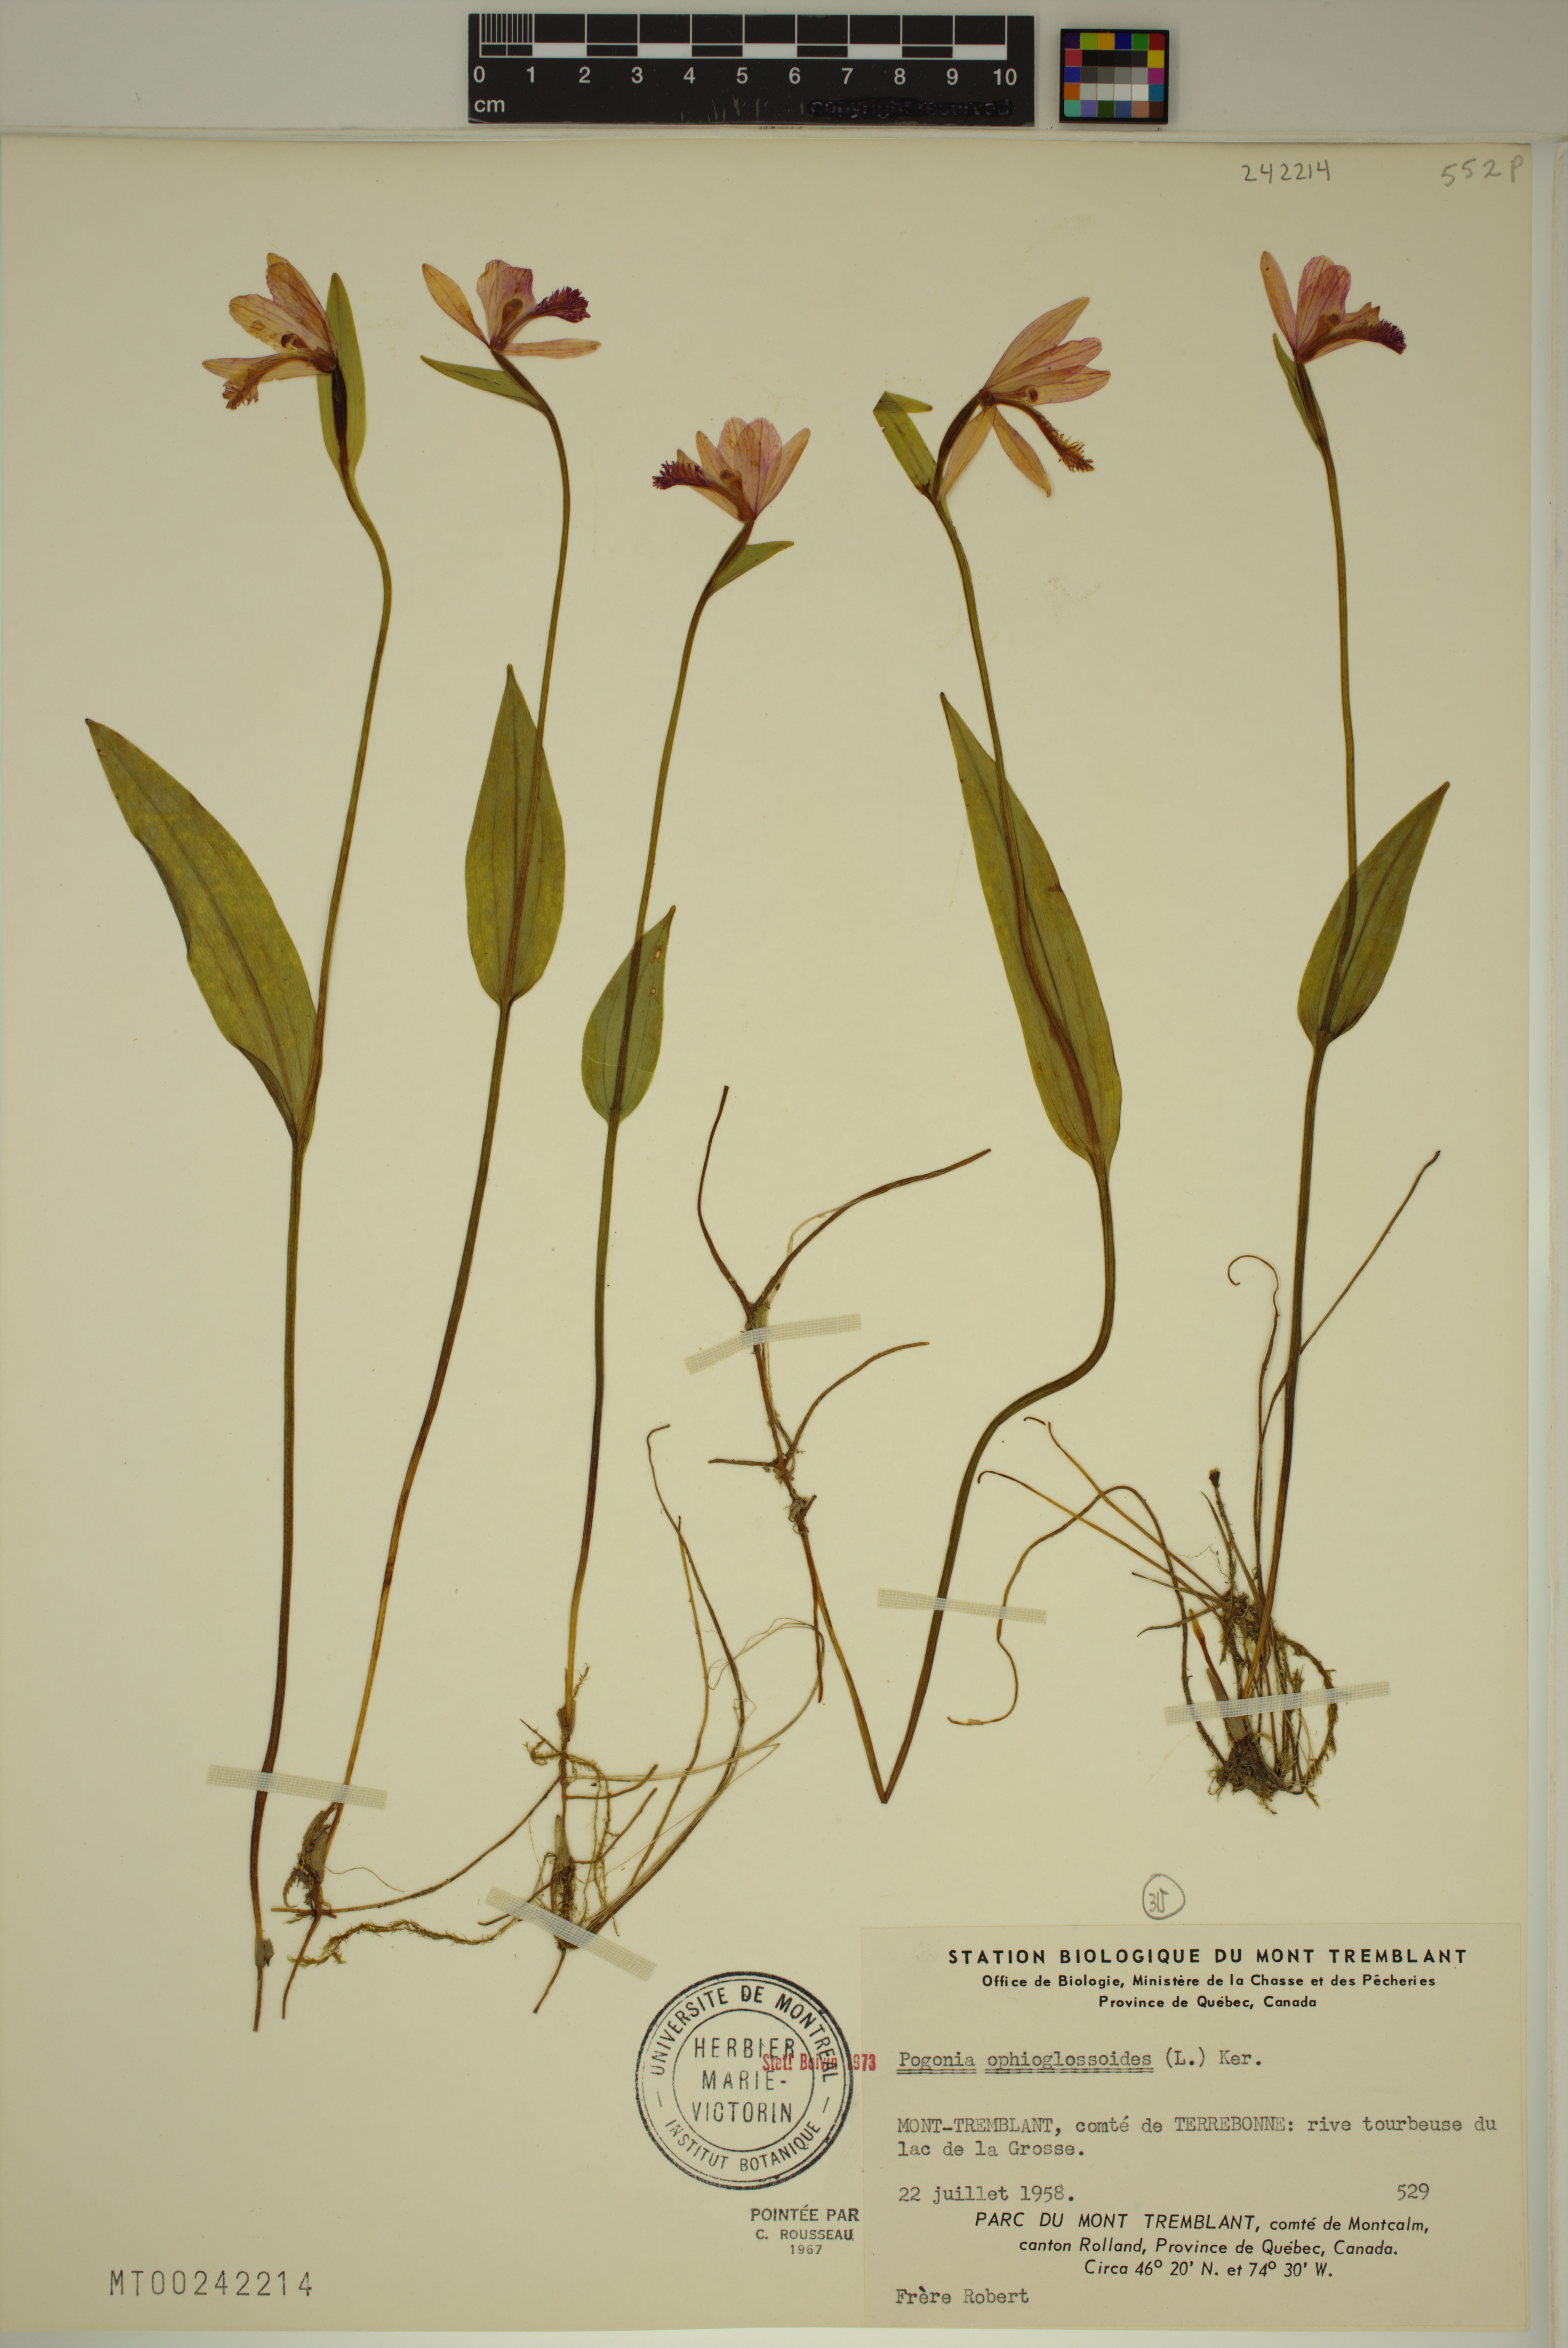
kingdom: Plantae
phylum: Tracheophyta
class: Liliopsida
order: Asparagales
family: Orchidaceae
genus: Pogonia
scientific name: Pogonia ophioglossoides
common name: Rose pogonia
